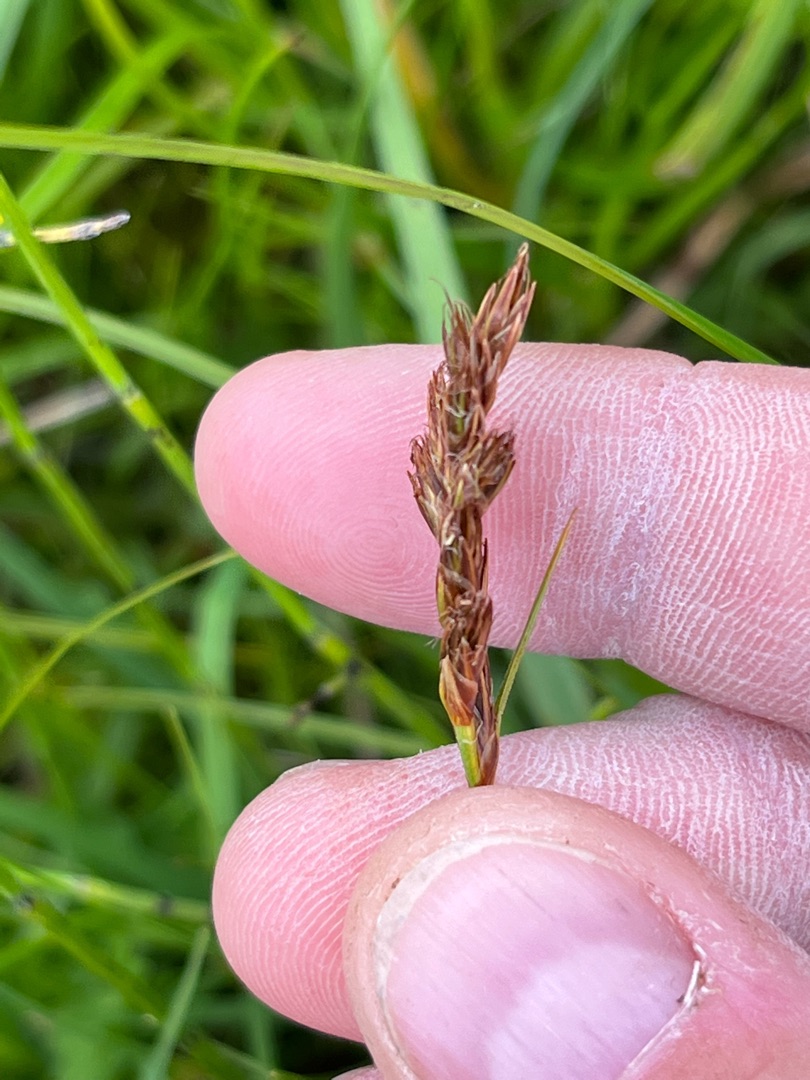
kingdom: Plantae
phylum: Tracheophyta
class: Liliopsida
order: Poales
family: Cyperaceae
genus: Blysmus
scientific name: Blysmus compressus
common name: Fladtrykt kogleaks
